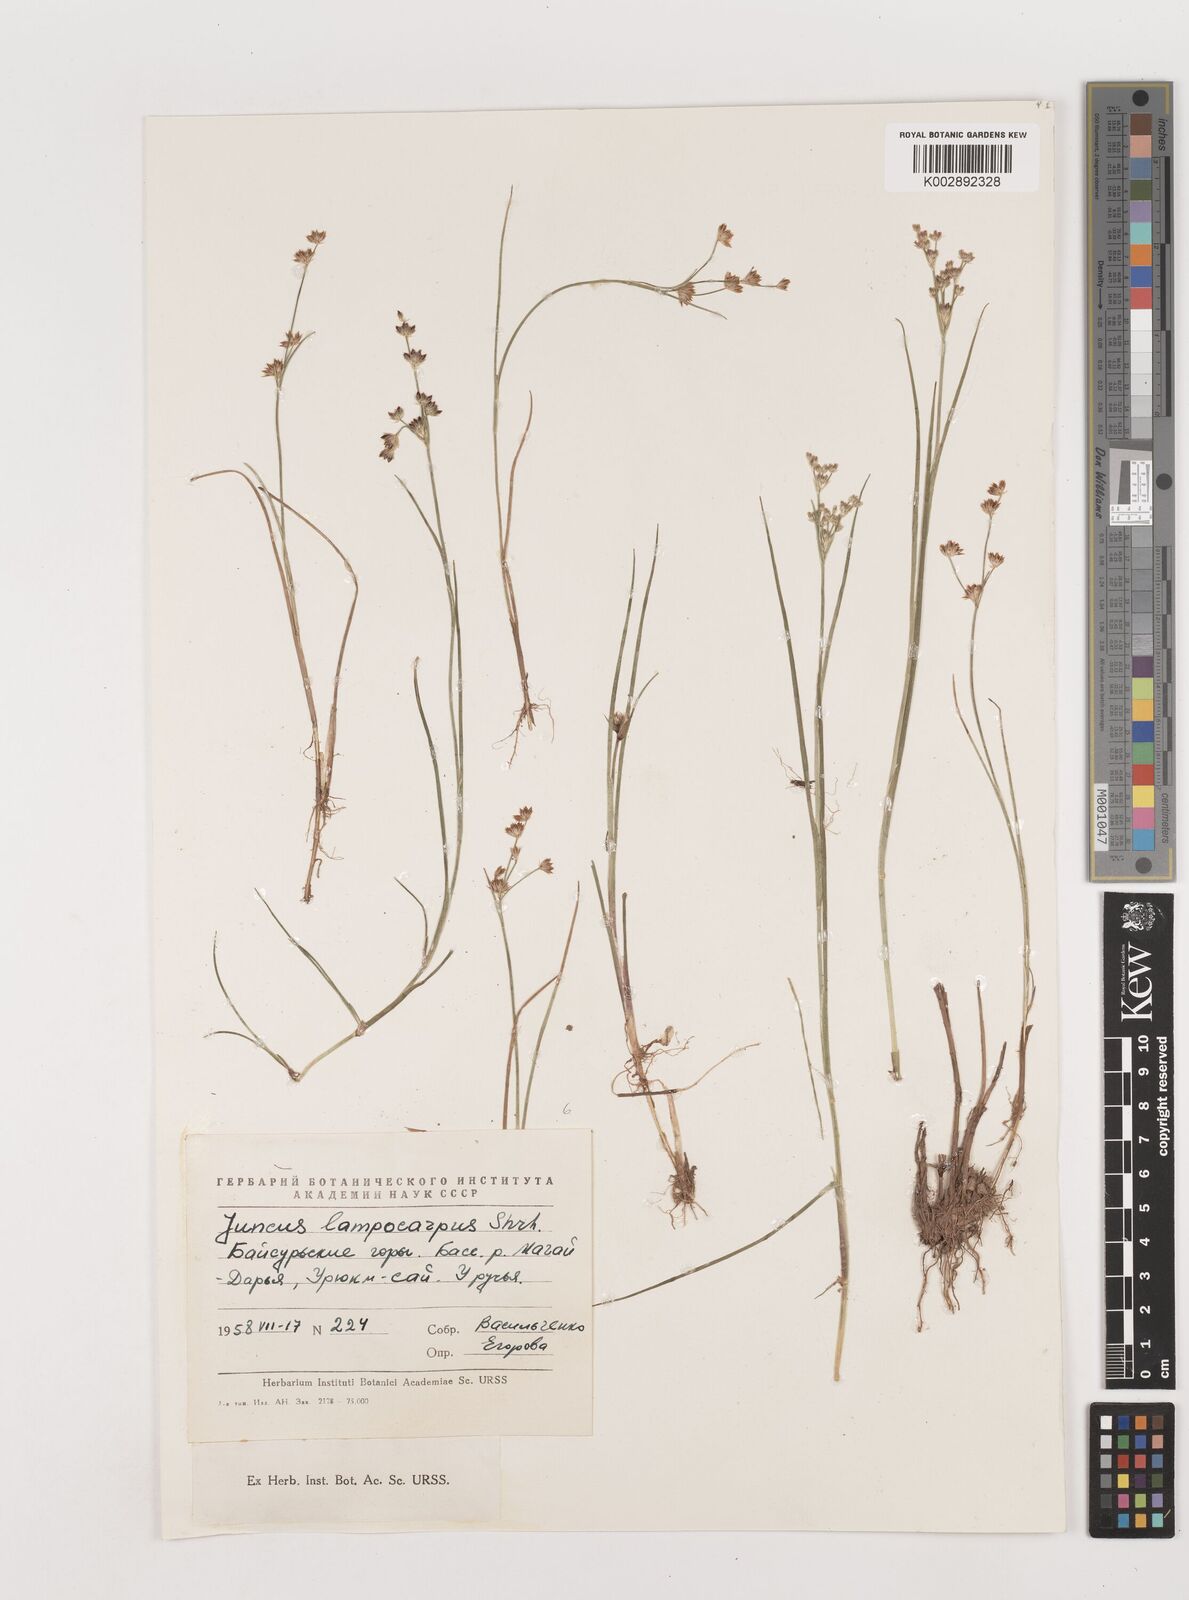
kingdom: Plantae
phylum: Tracheophyta
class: Liliopsida
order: Poales
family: Juncaceae
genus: Juncus
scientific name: Juncus articulatus
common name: Jointed rush
